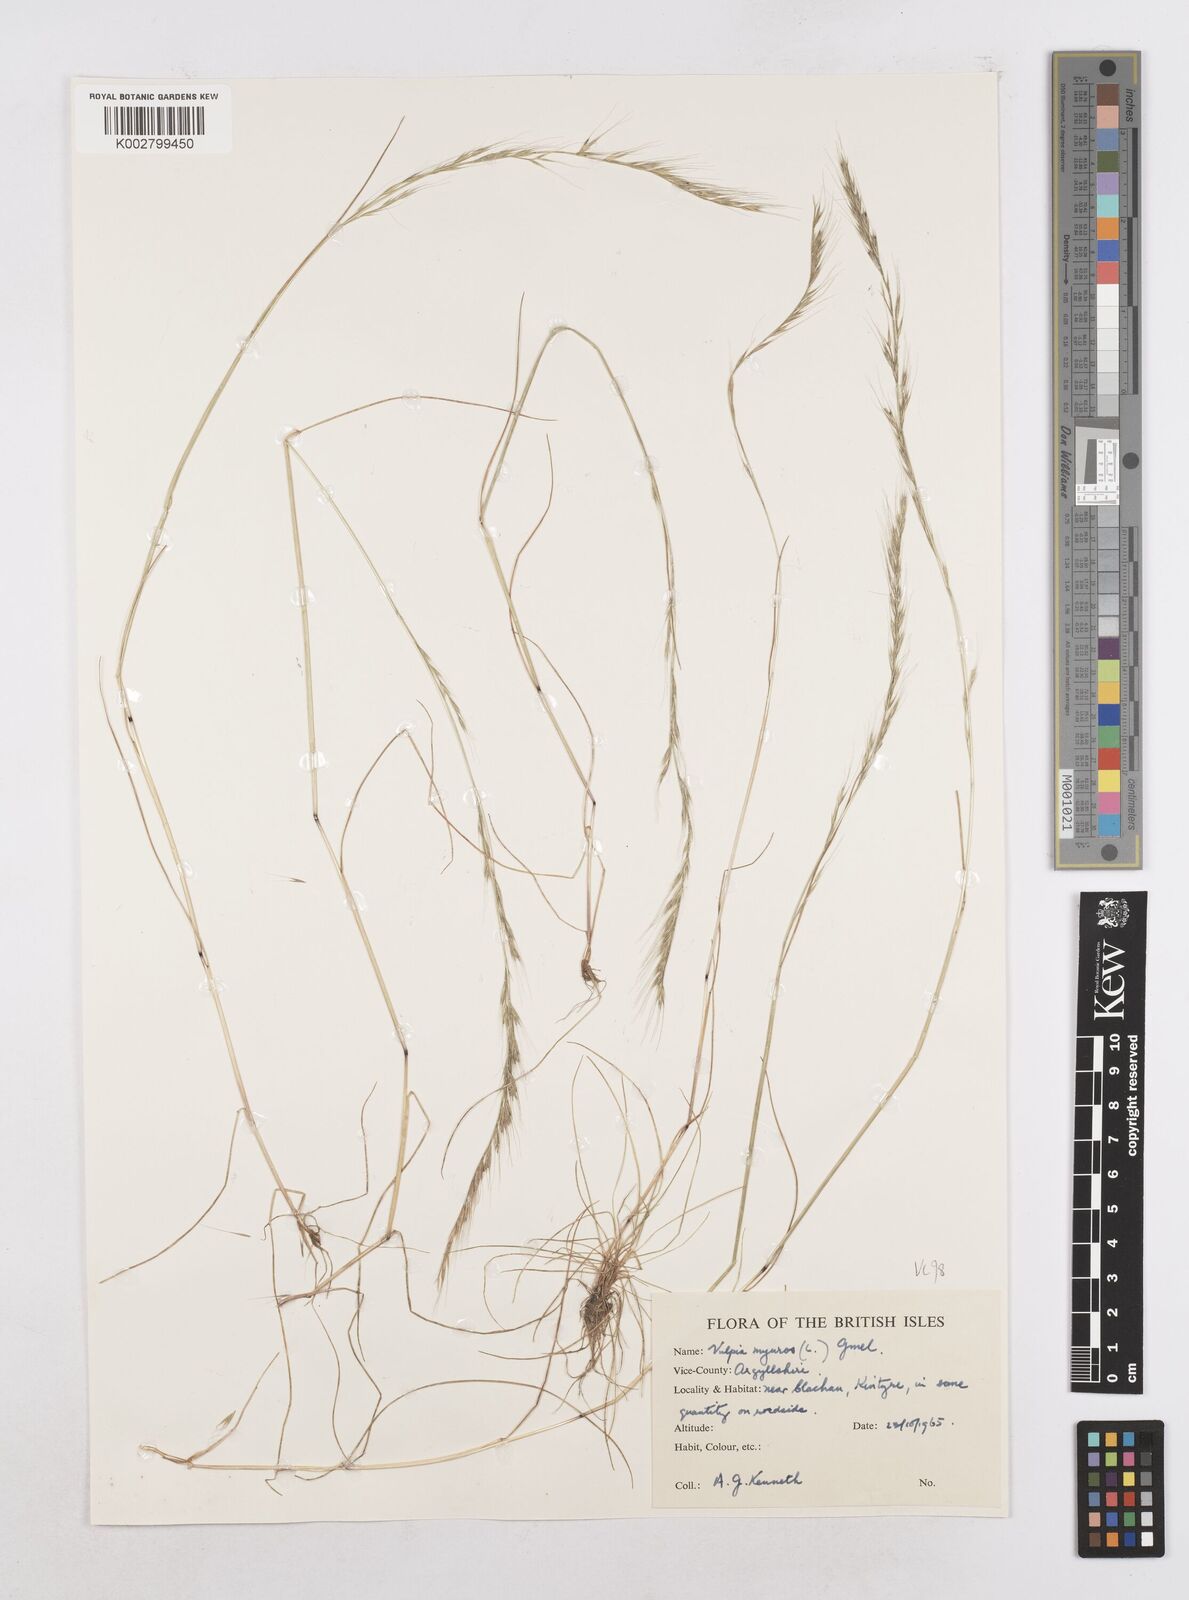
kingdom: Plantae
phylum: Tracheophyta
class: Liliopsida
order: Poales
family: Poaceae
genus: Festuca
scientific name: Festuca myuros
